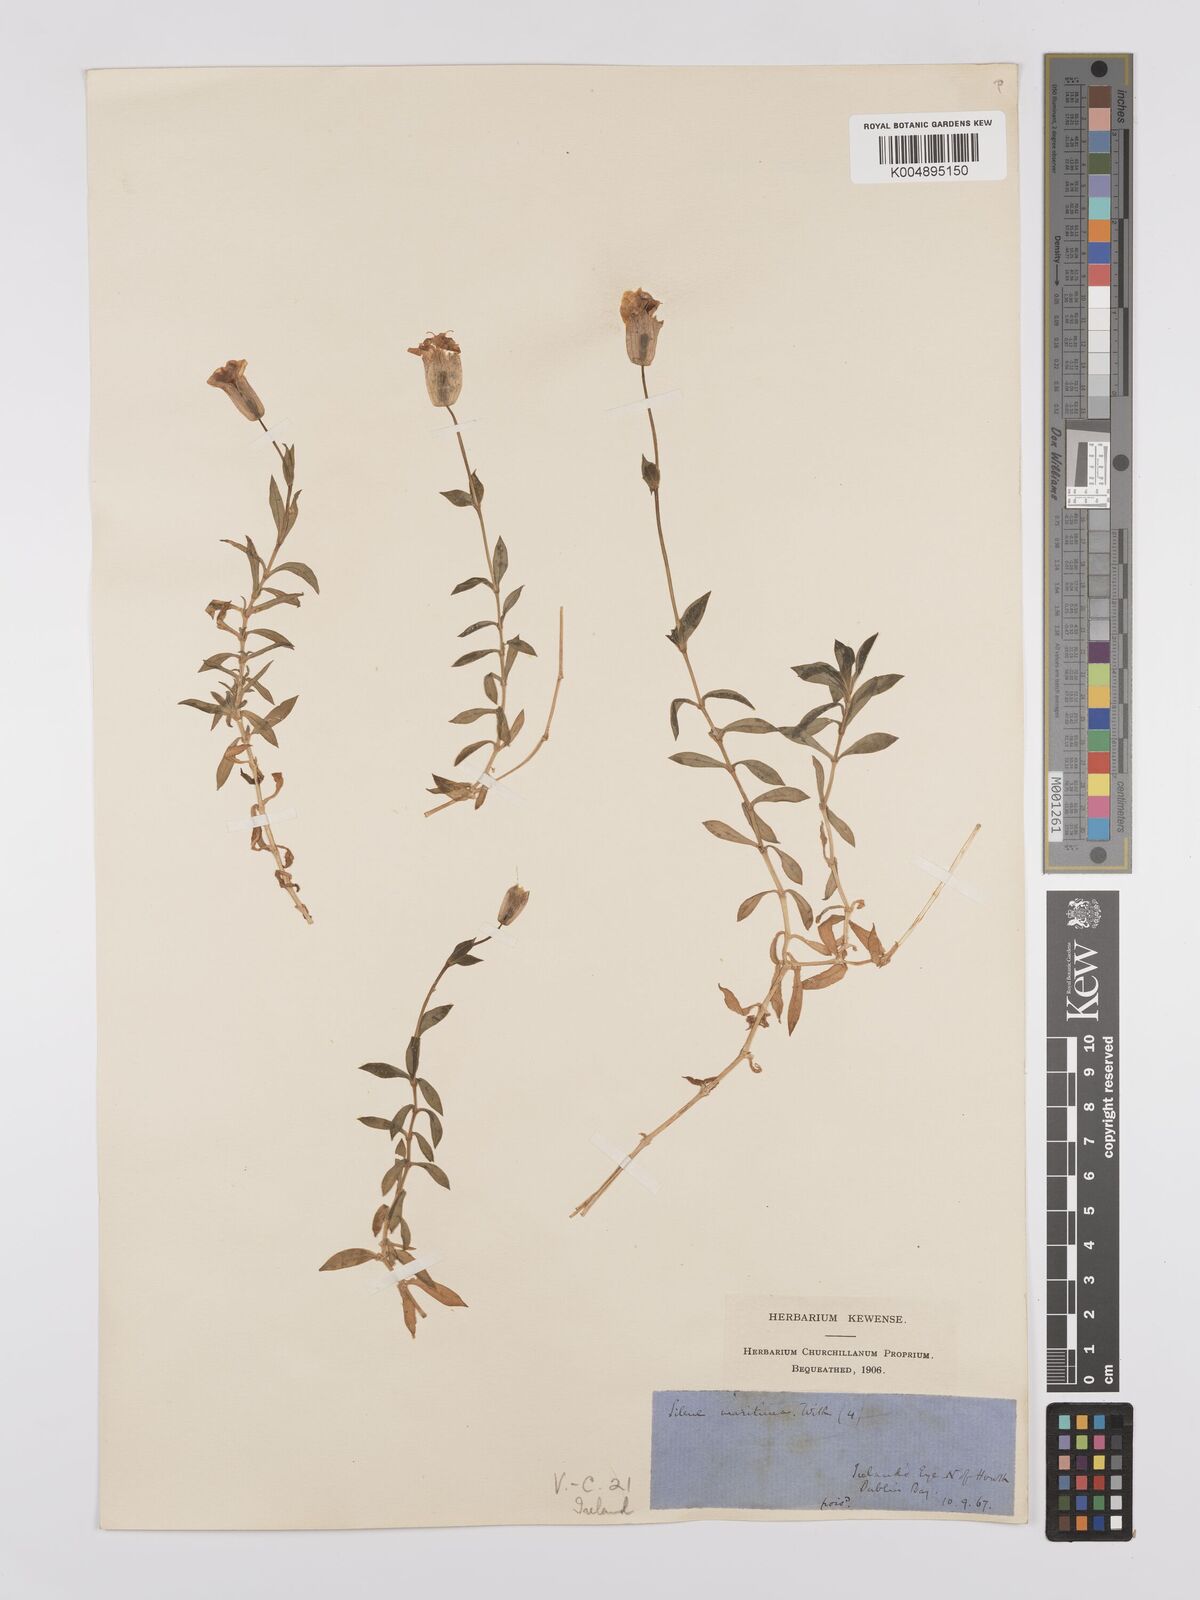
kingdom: Plantae
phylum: Tracheophyta
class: Magnoliopsida
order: Caryophyllales
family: Caryophyllaceae
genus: Silene
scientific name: Silene uniflora
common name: Sea campion
